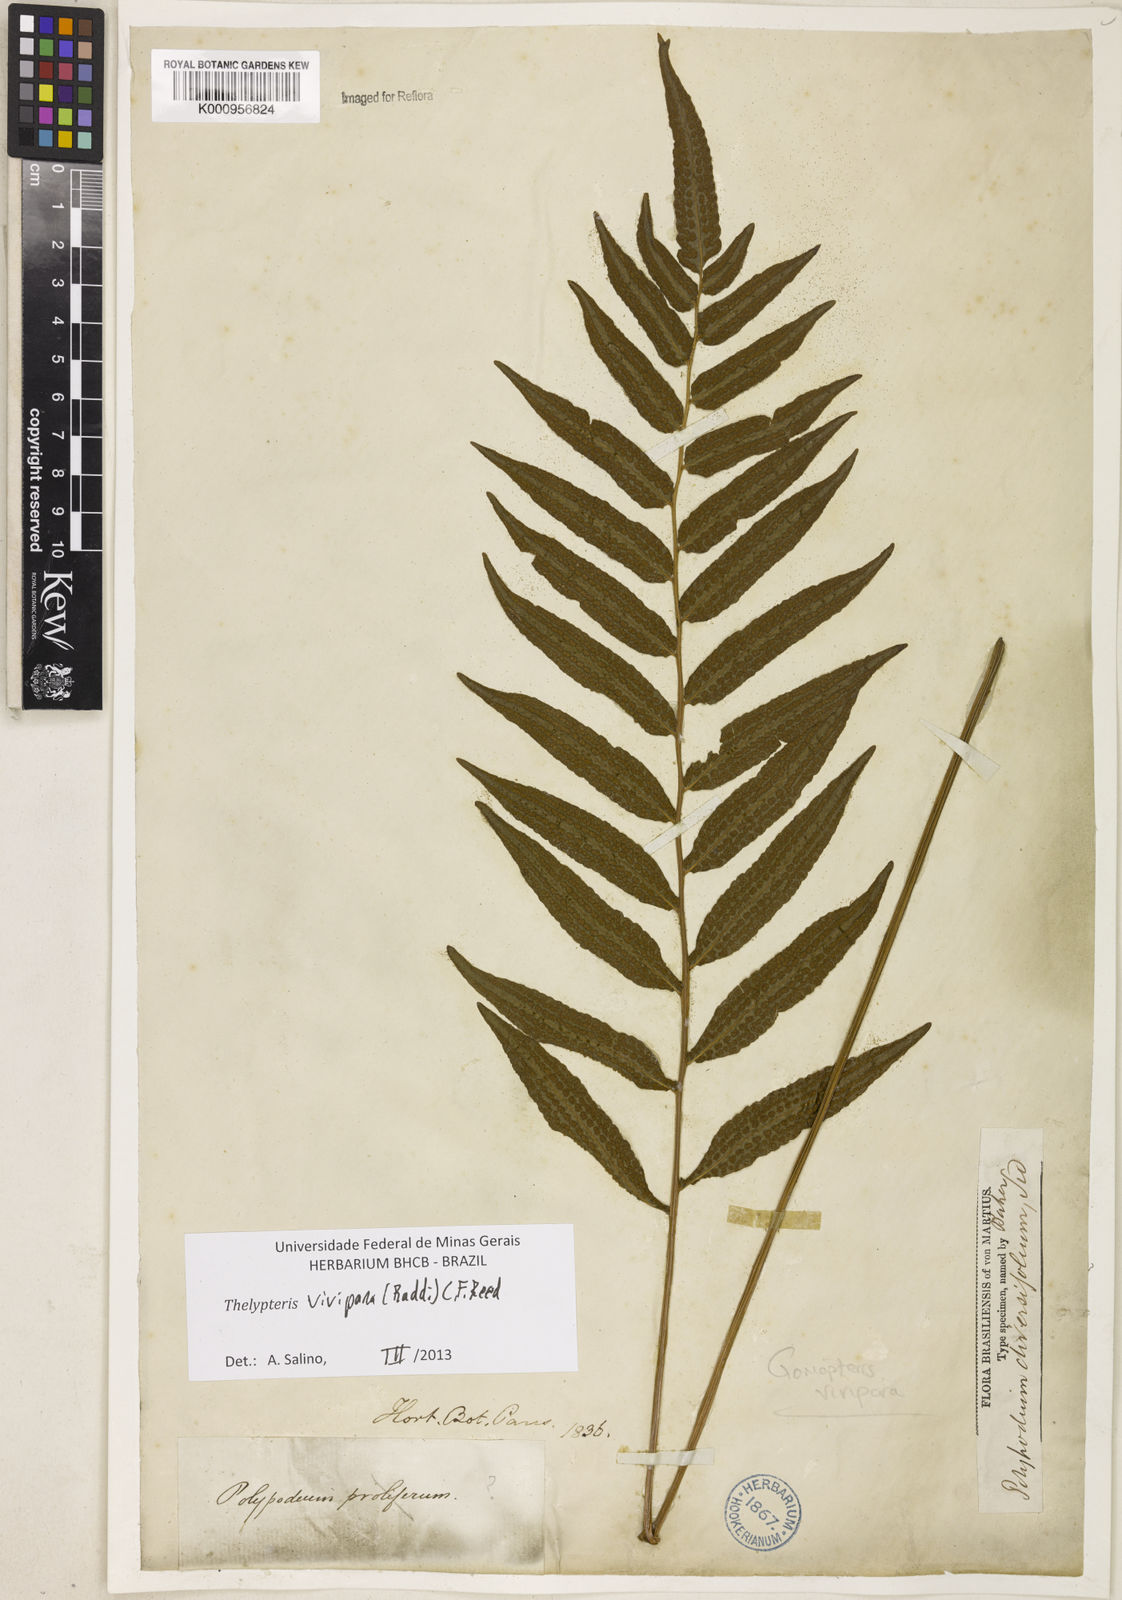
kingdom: Plantae
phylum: Tracheophyta
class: Polypodiopsida
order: Polypodiales
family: Thelypteridaceae
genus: Goniopteris
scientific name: Goniopteris vivipara
